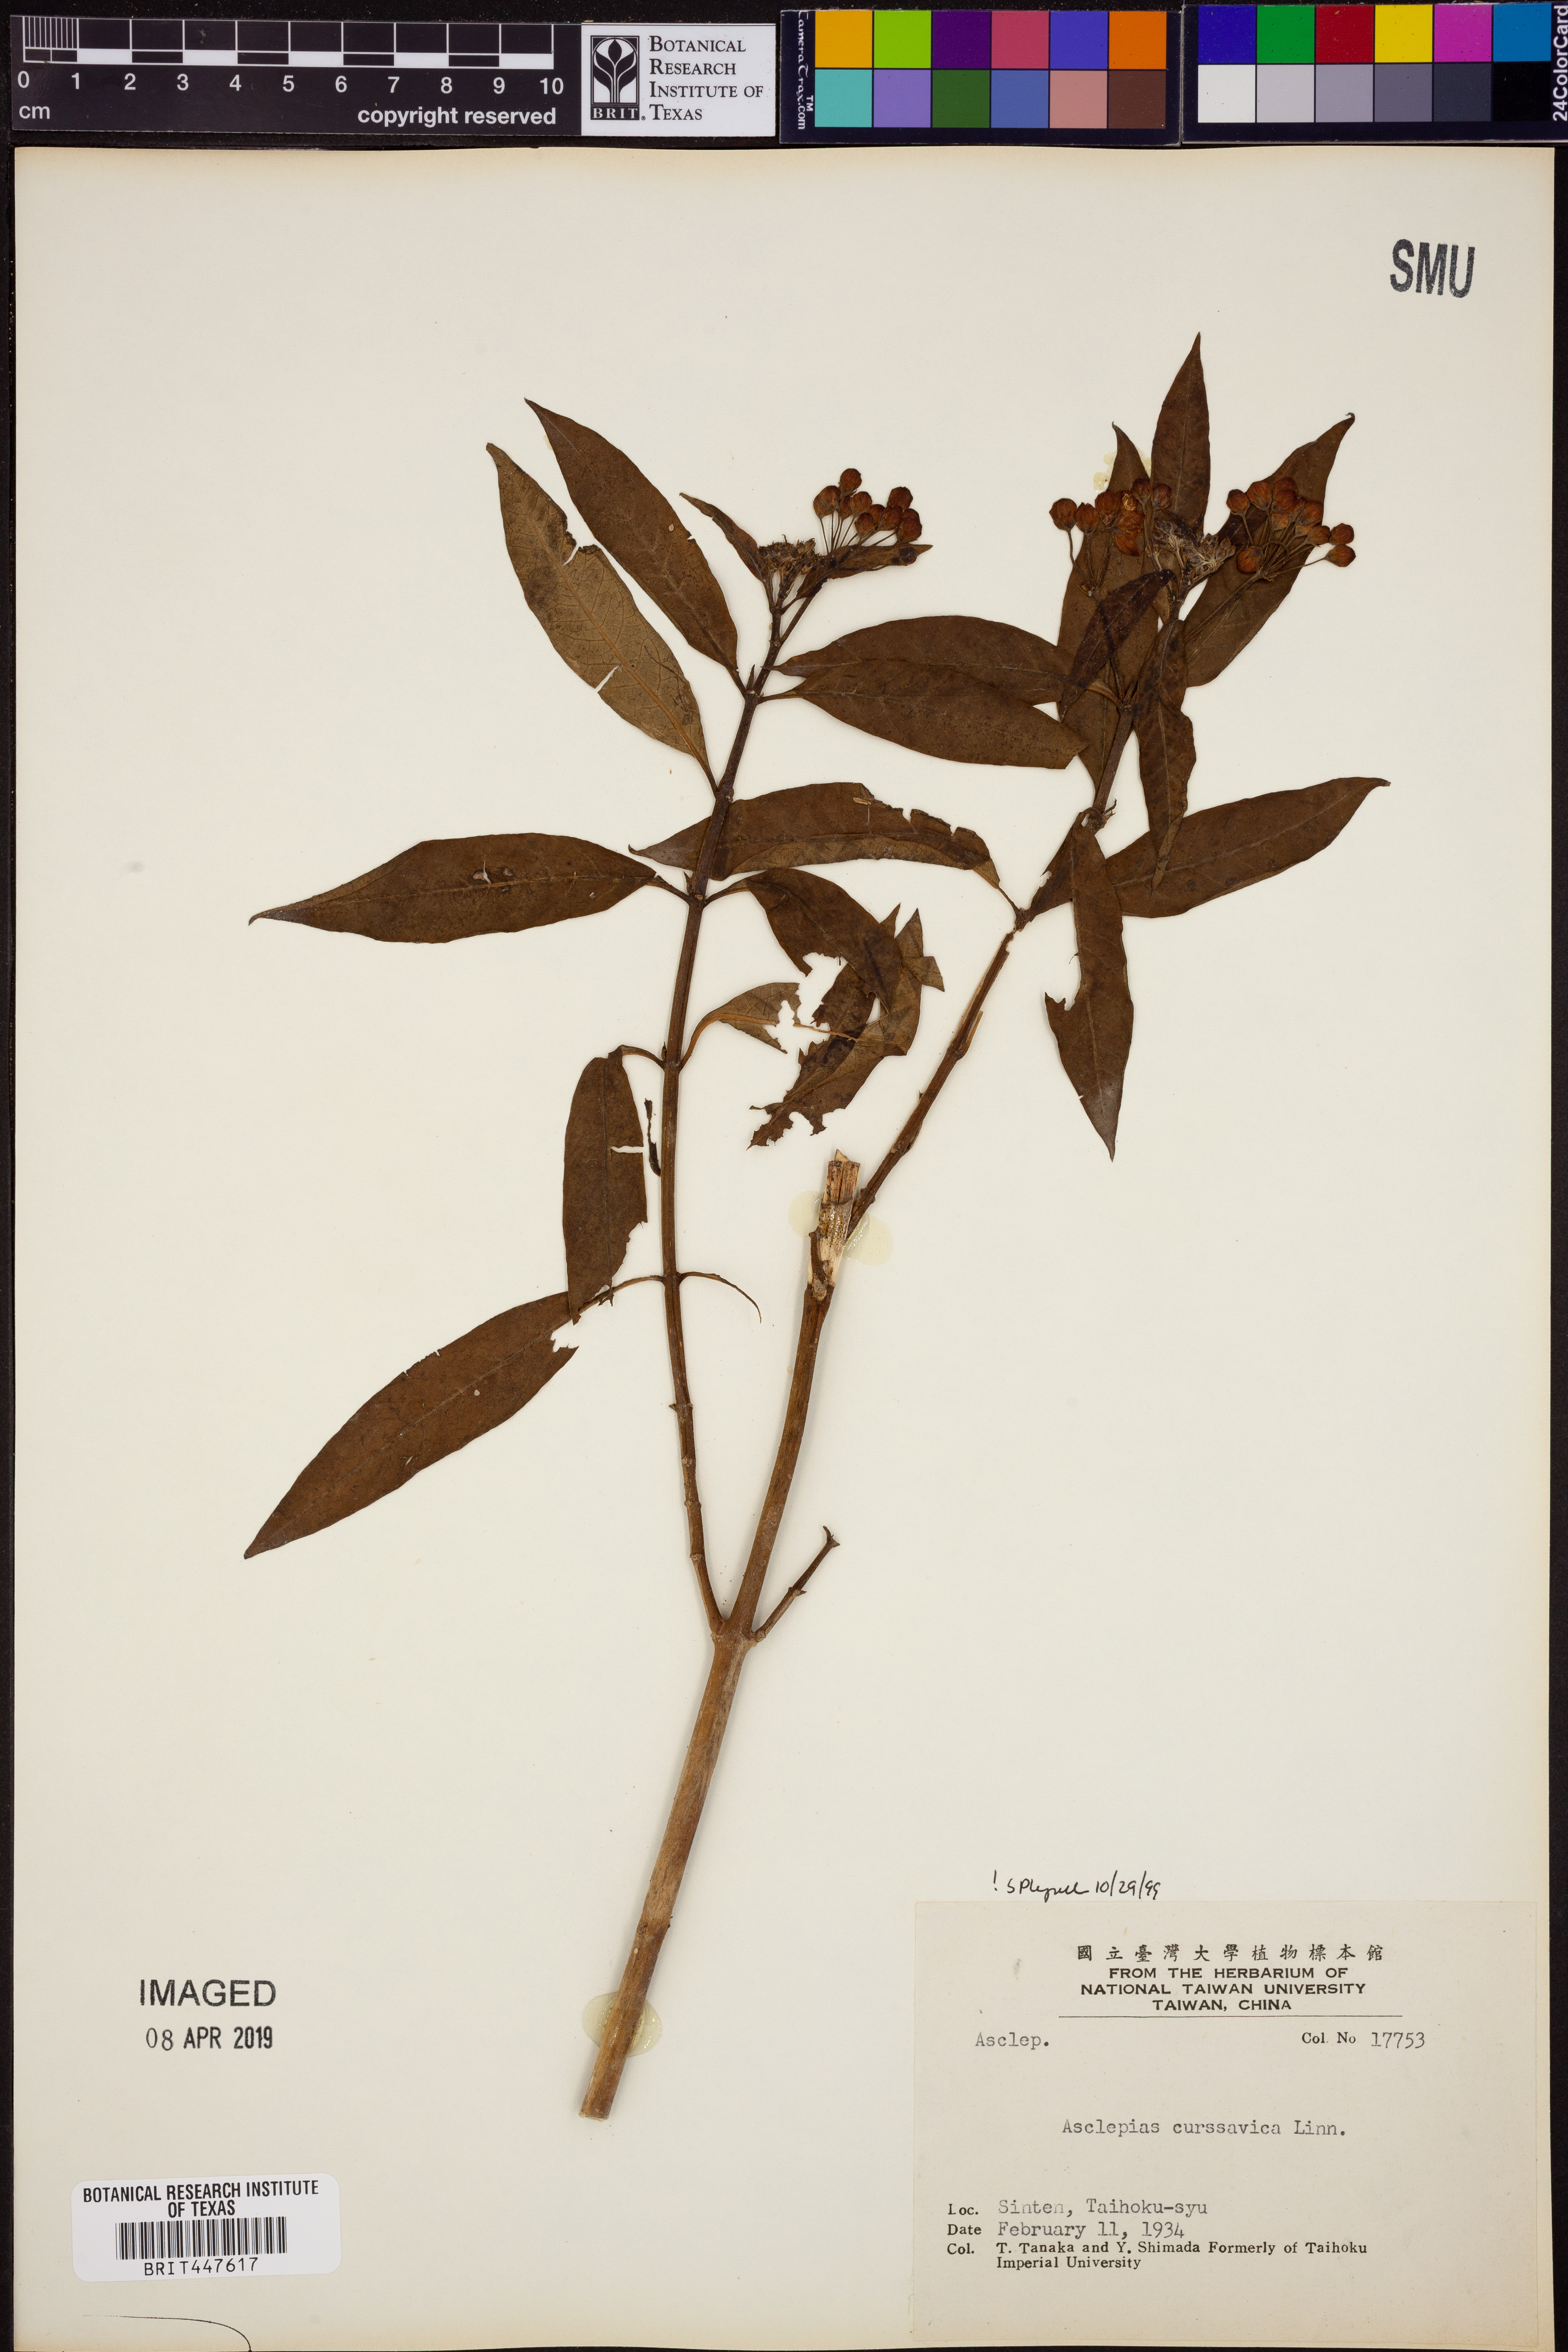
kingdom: Plantae
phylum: Tracheophyta
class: Magnoliopsida
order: Gentianales
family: Apocynaceae
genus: Asclepias
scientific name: Asclepias curassavica
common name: Bloodflower
